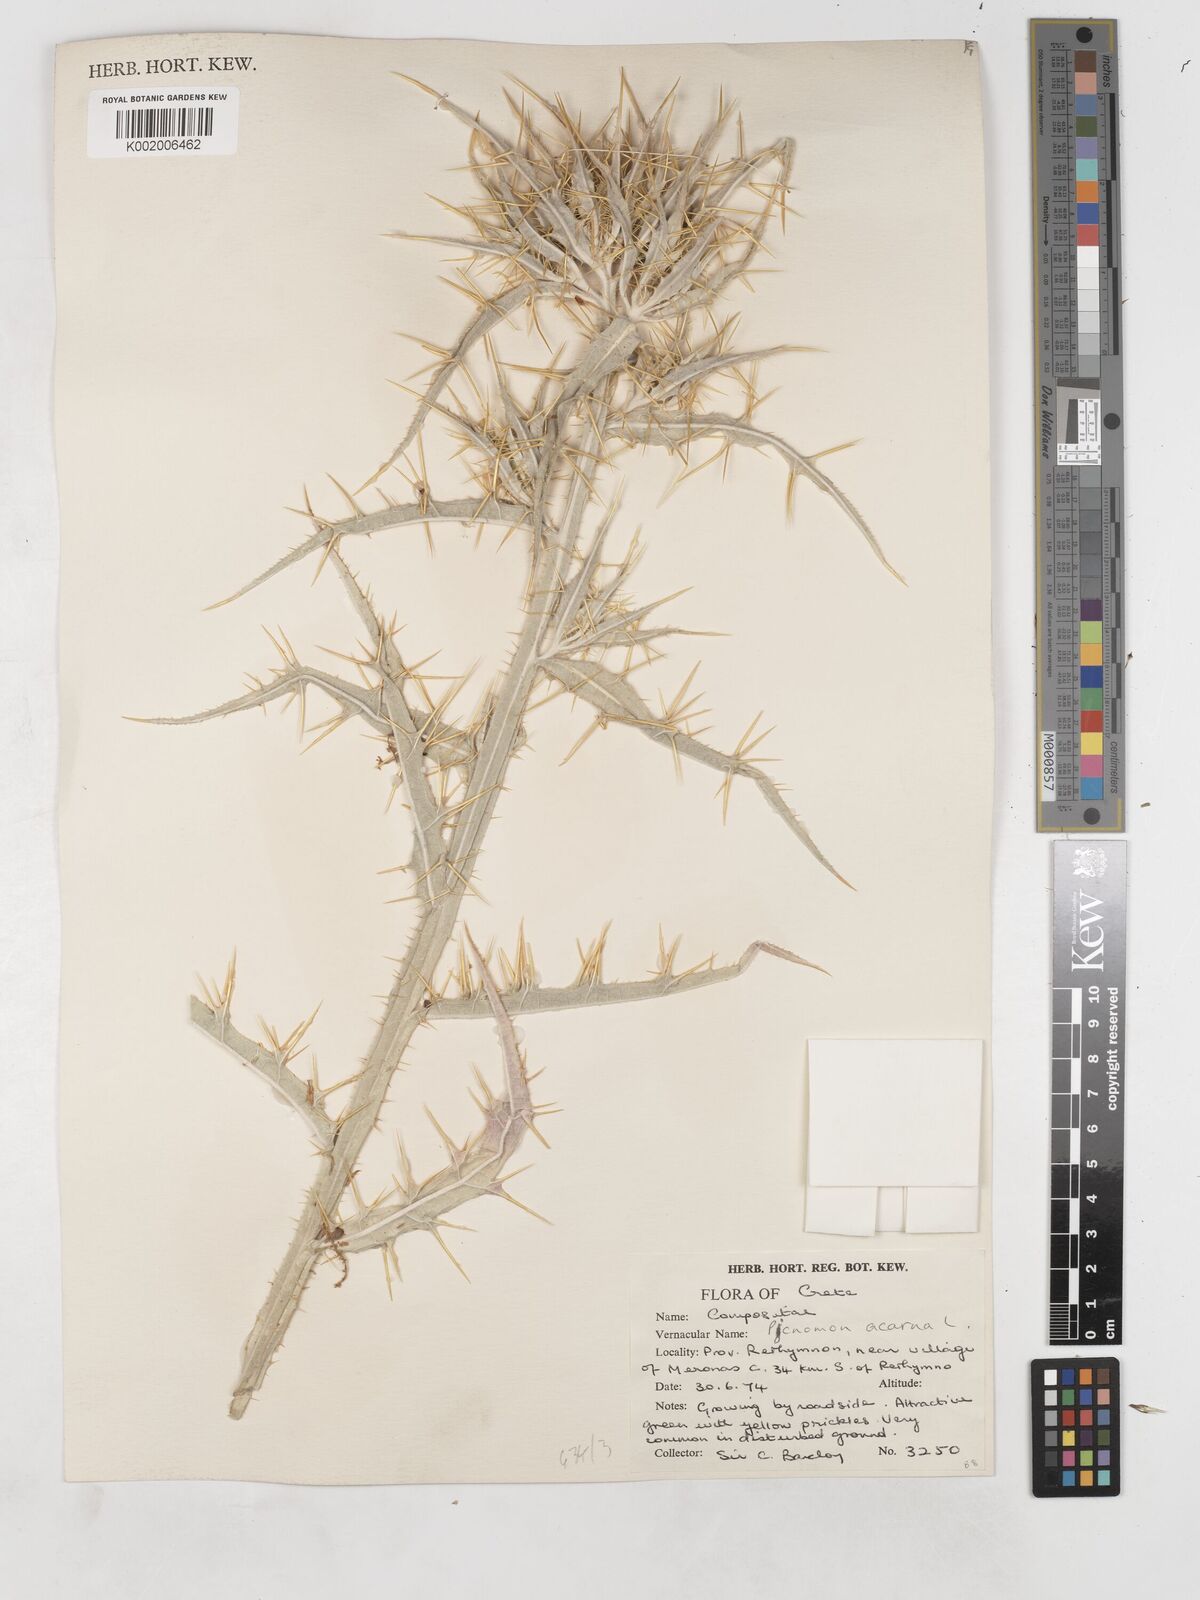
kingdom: Plantae
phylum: Tracheophyta
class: Magnoliopsida
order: Asterales
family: Asteraceae
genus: Picnomon
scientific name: Picnomon acarna
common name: Soldier thistle
